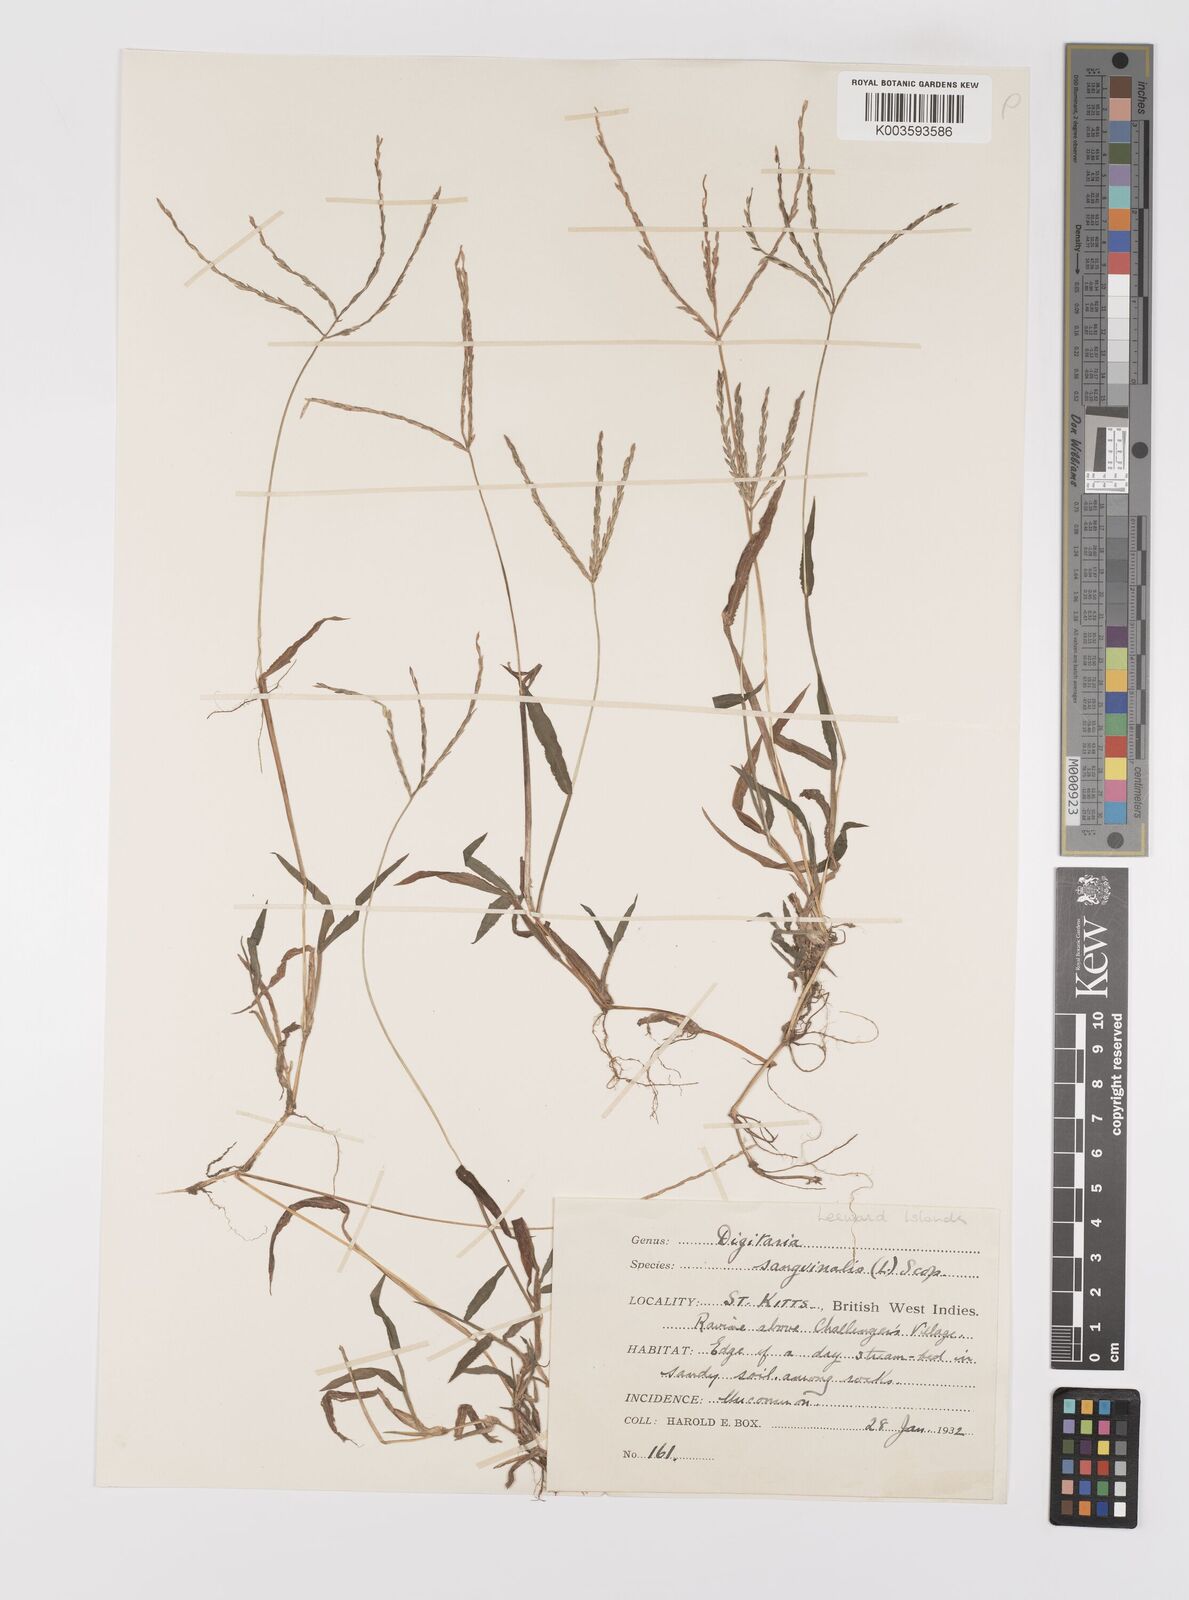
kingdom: Plantae
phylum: Tracheophyta
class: Liliopsida
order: Poales
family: Poaceae
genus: Digitaria
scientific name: Digitaria ciliaris
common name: Tropical finger-grass
